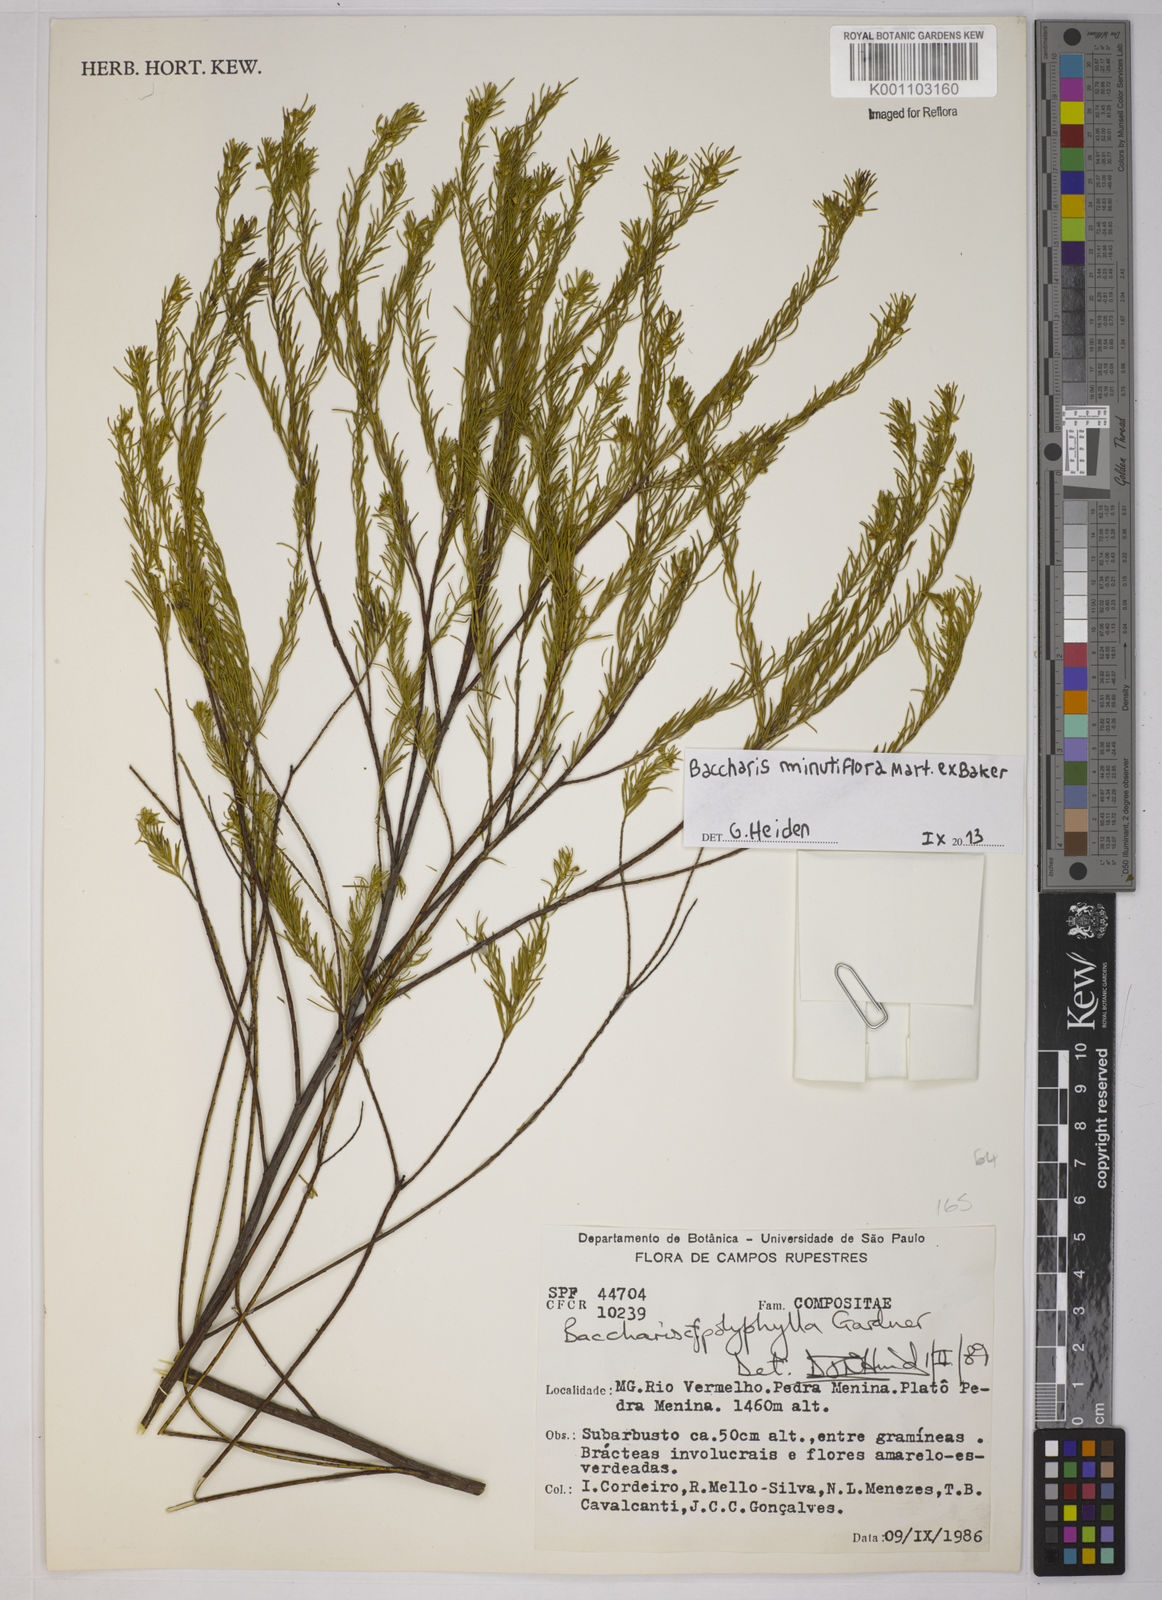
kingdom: Plantae
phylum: Tracheophyta
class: Magnoliopsida
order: Asterales
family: Asteraceae
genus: Baccharis
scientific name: Baccharis minutiflora
